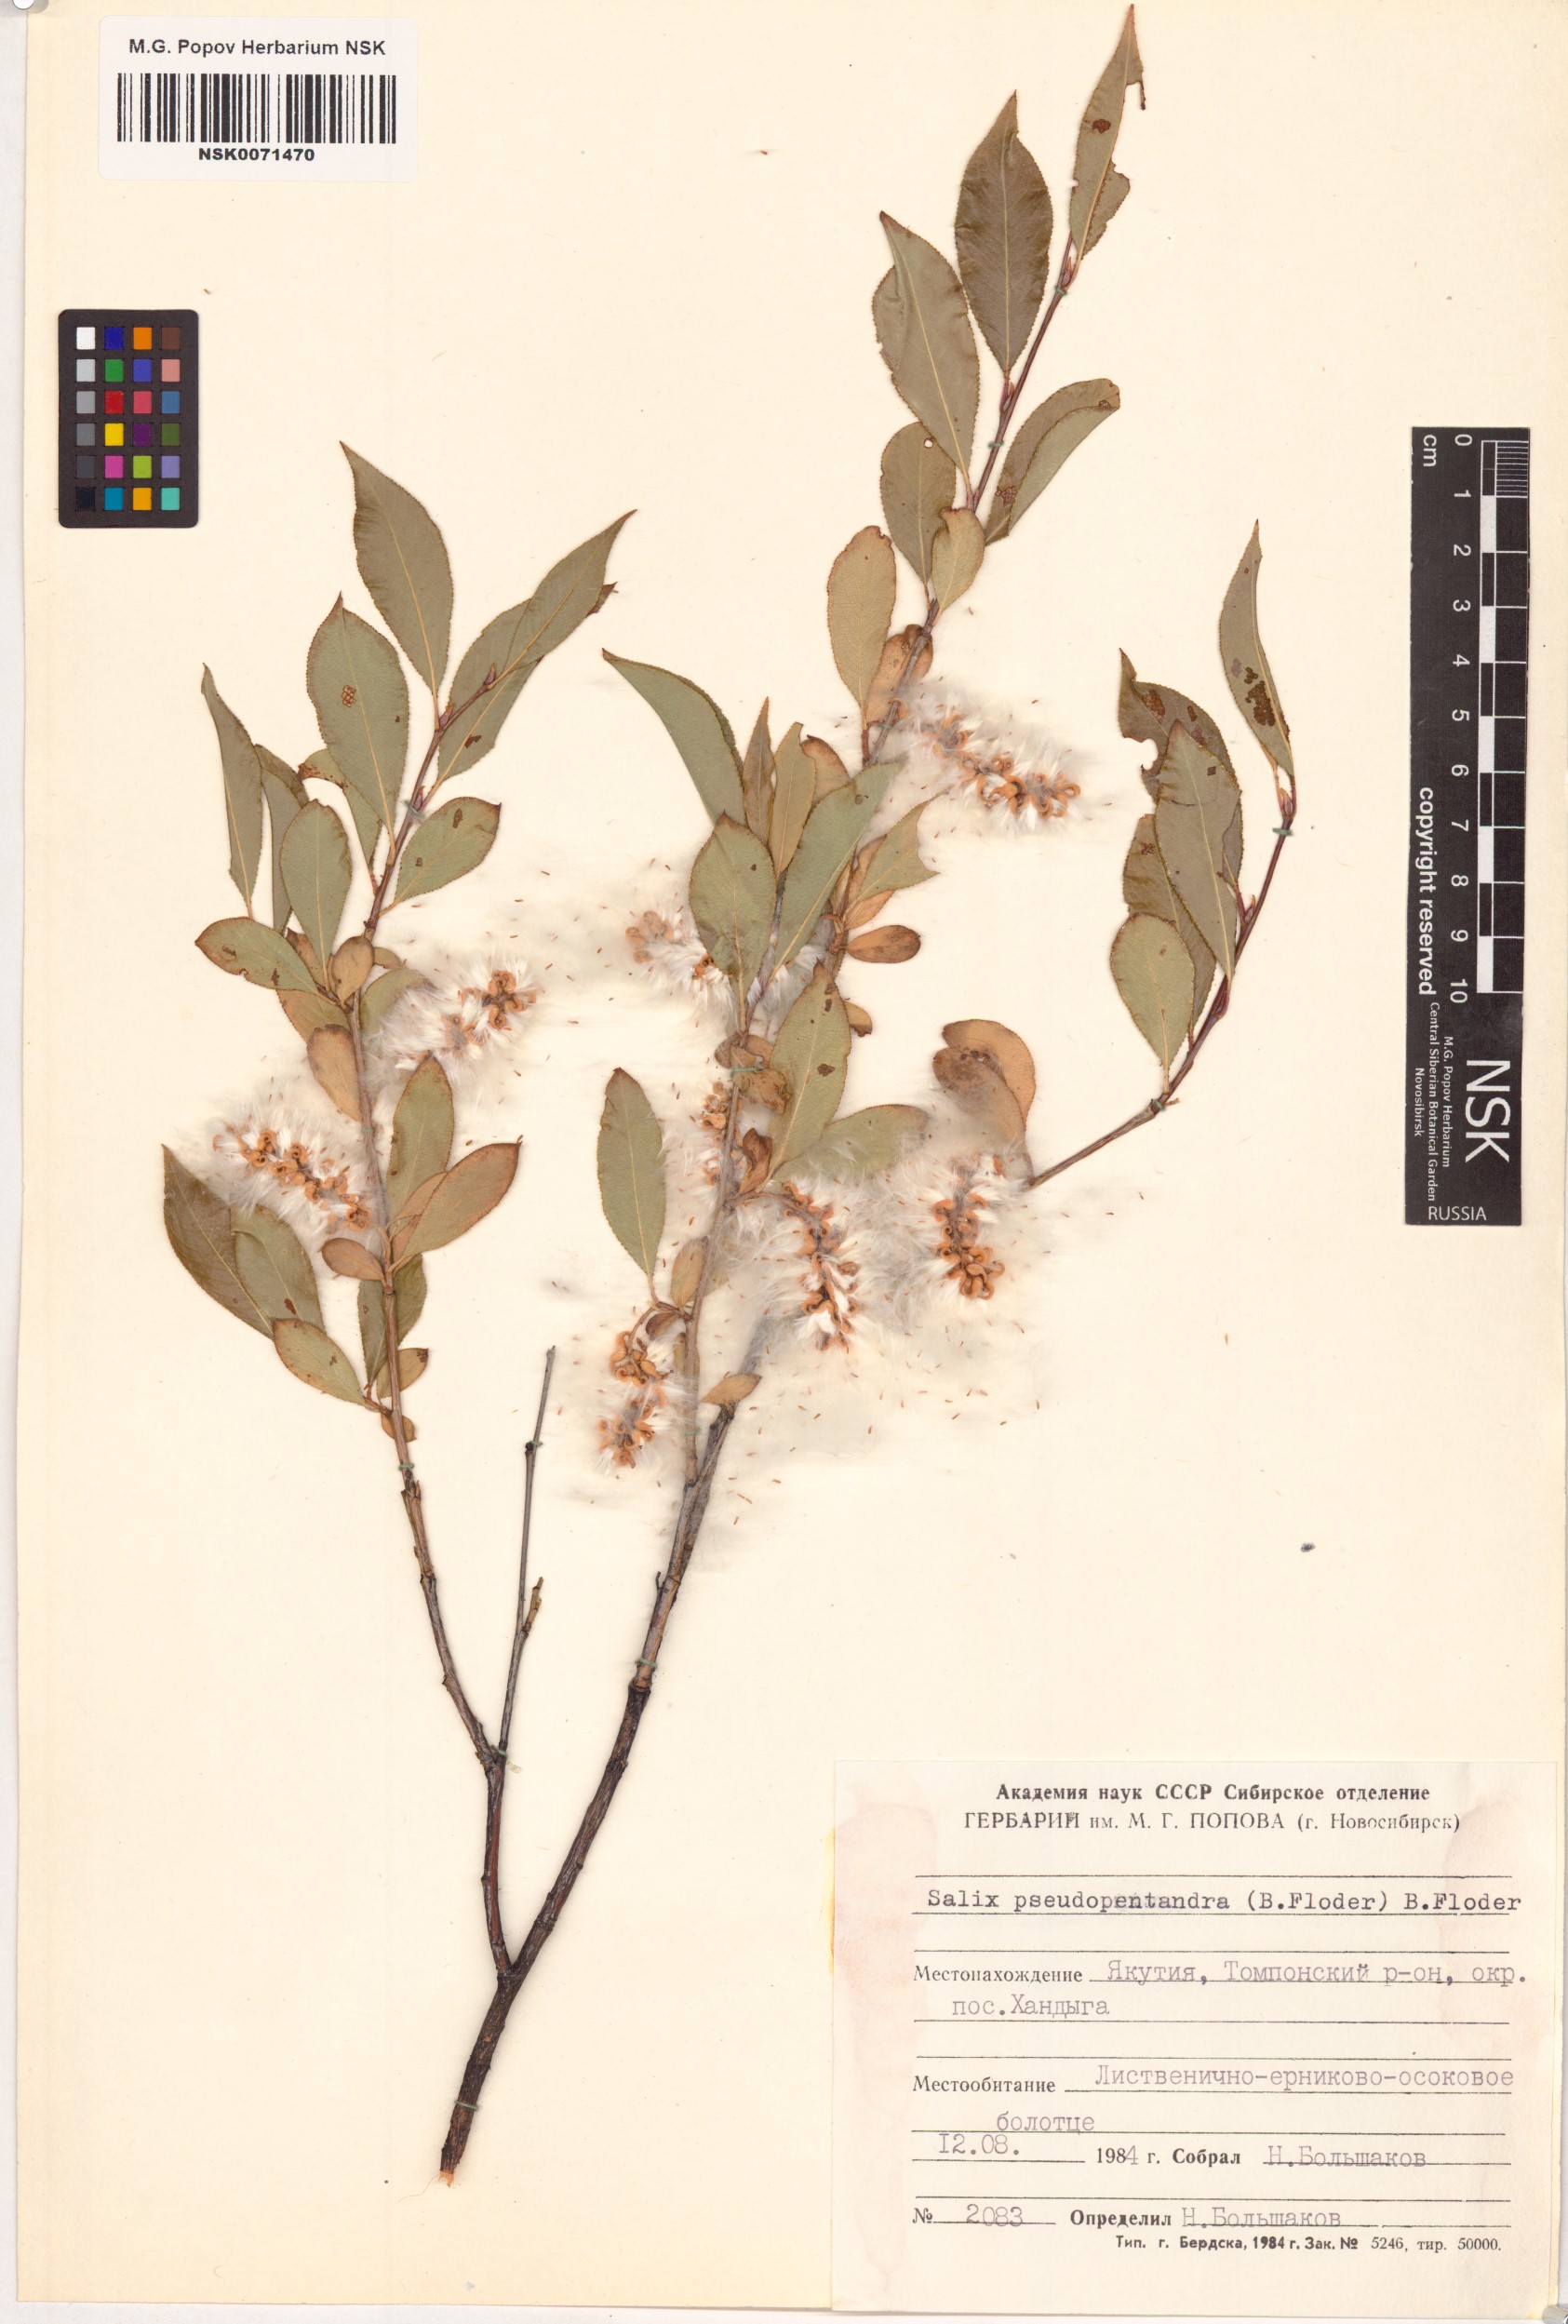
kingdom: Plantae
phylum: Tracheophyta
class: Magnoliopsida
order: Malpighiales
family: Salicaceae
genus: Salix
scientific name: Salix pseudopentandra
